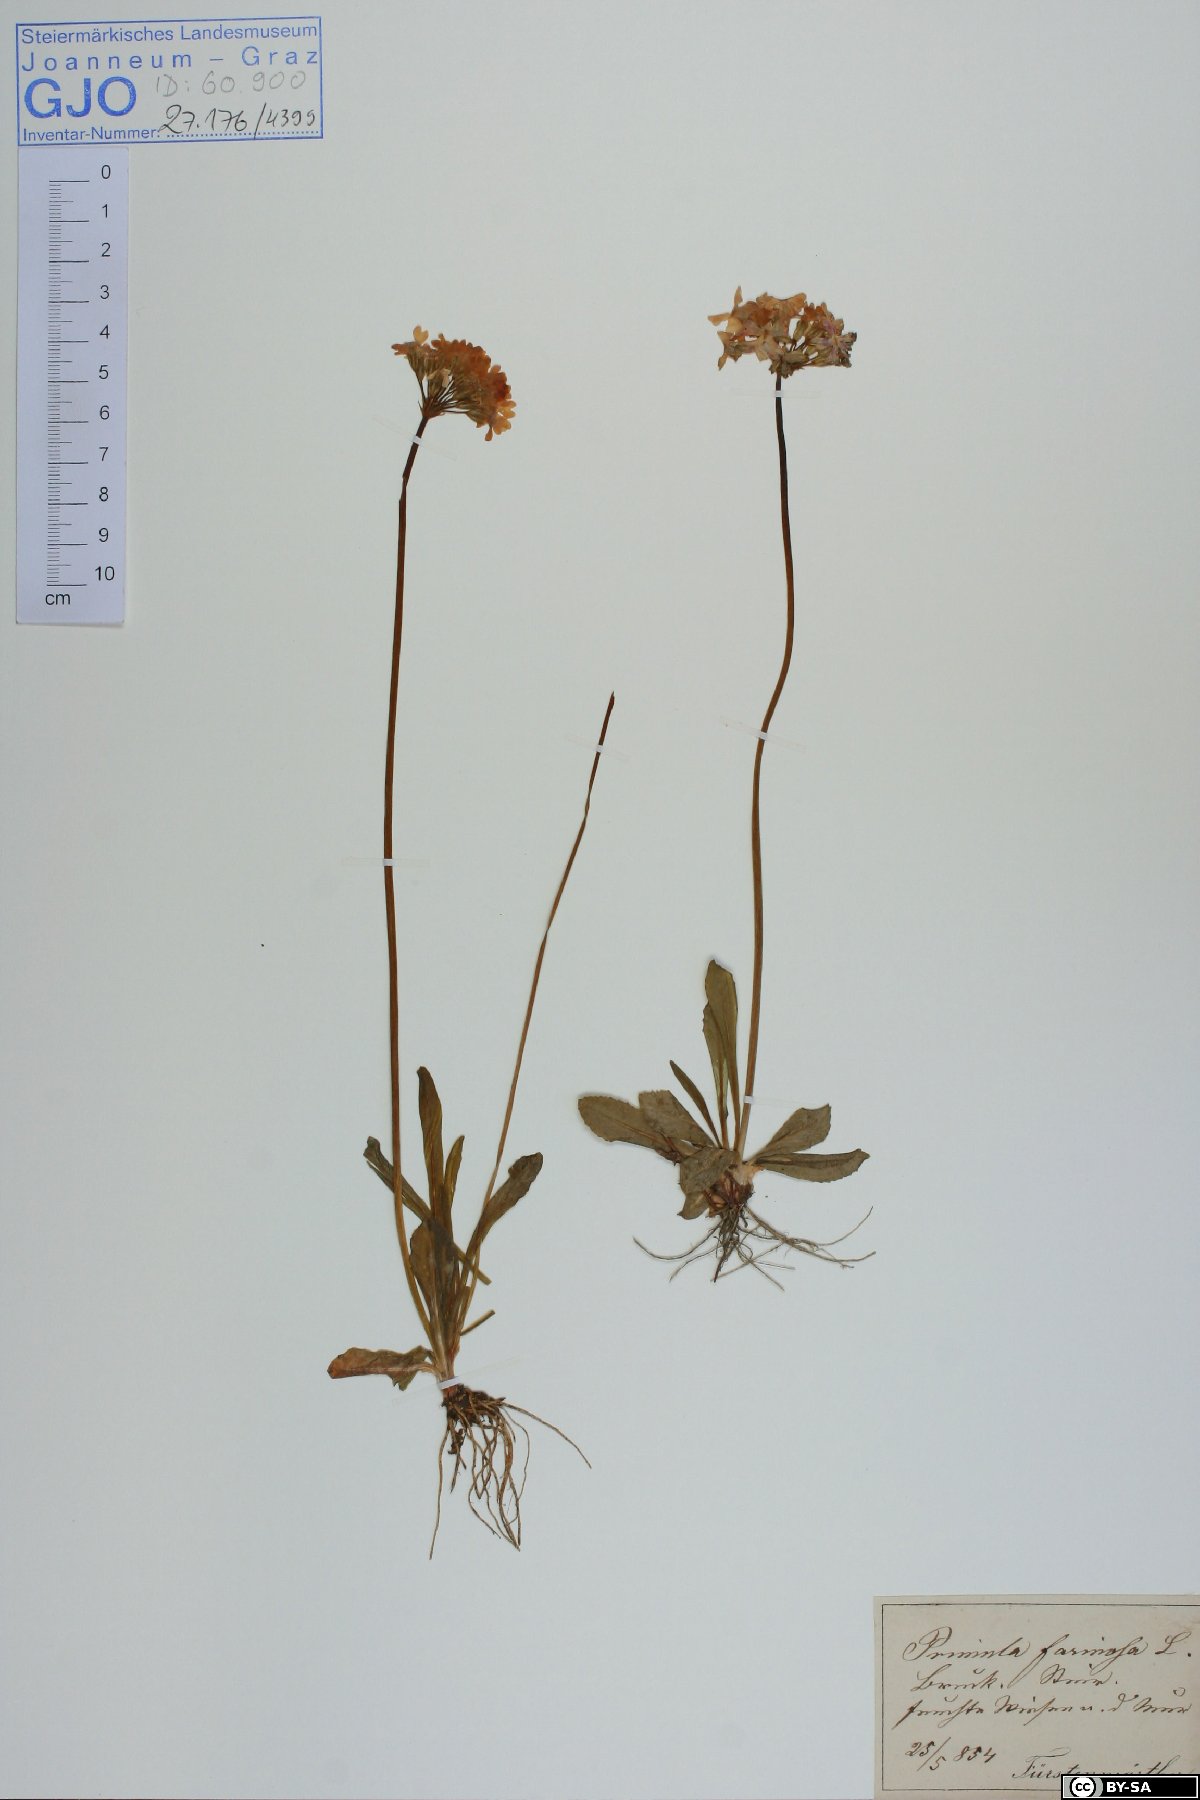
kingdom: Plantae
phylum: Tracheophyta
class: Magnoliopsida
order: Ericales
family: Primulaceae
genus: Primula
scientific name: Primula farinosa
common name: Bird's-eye primrose
